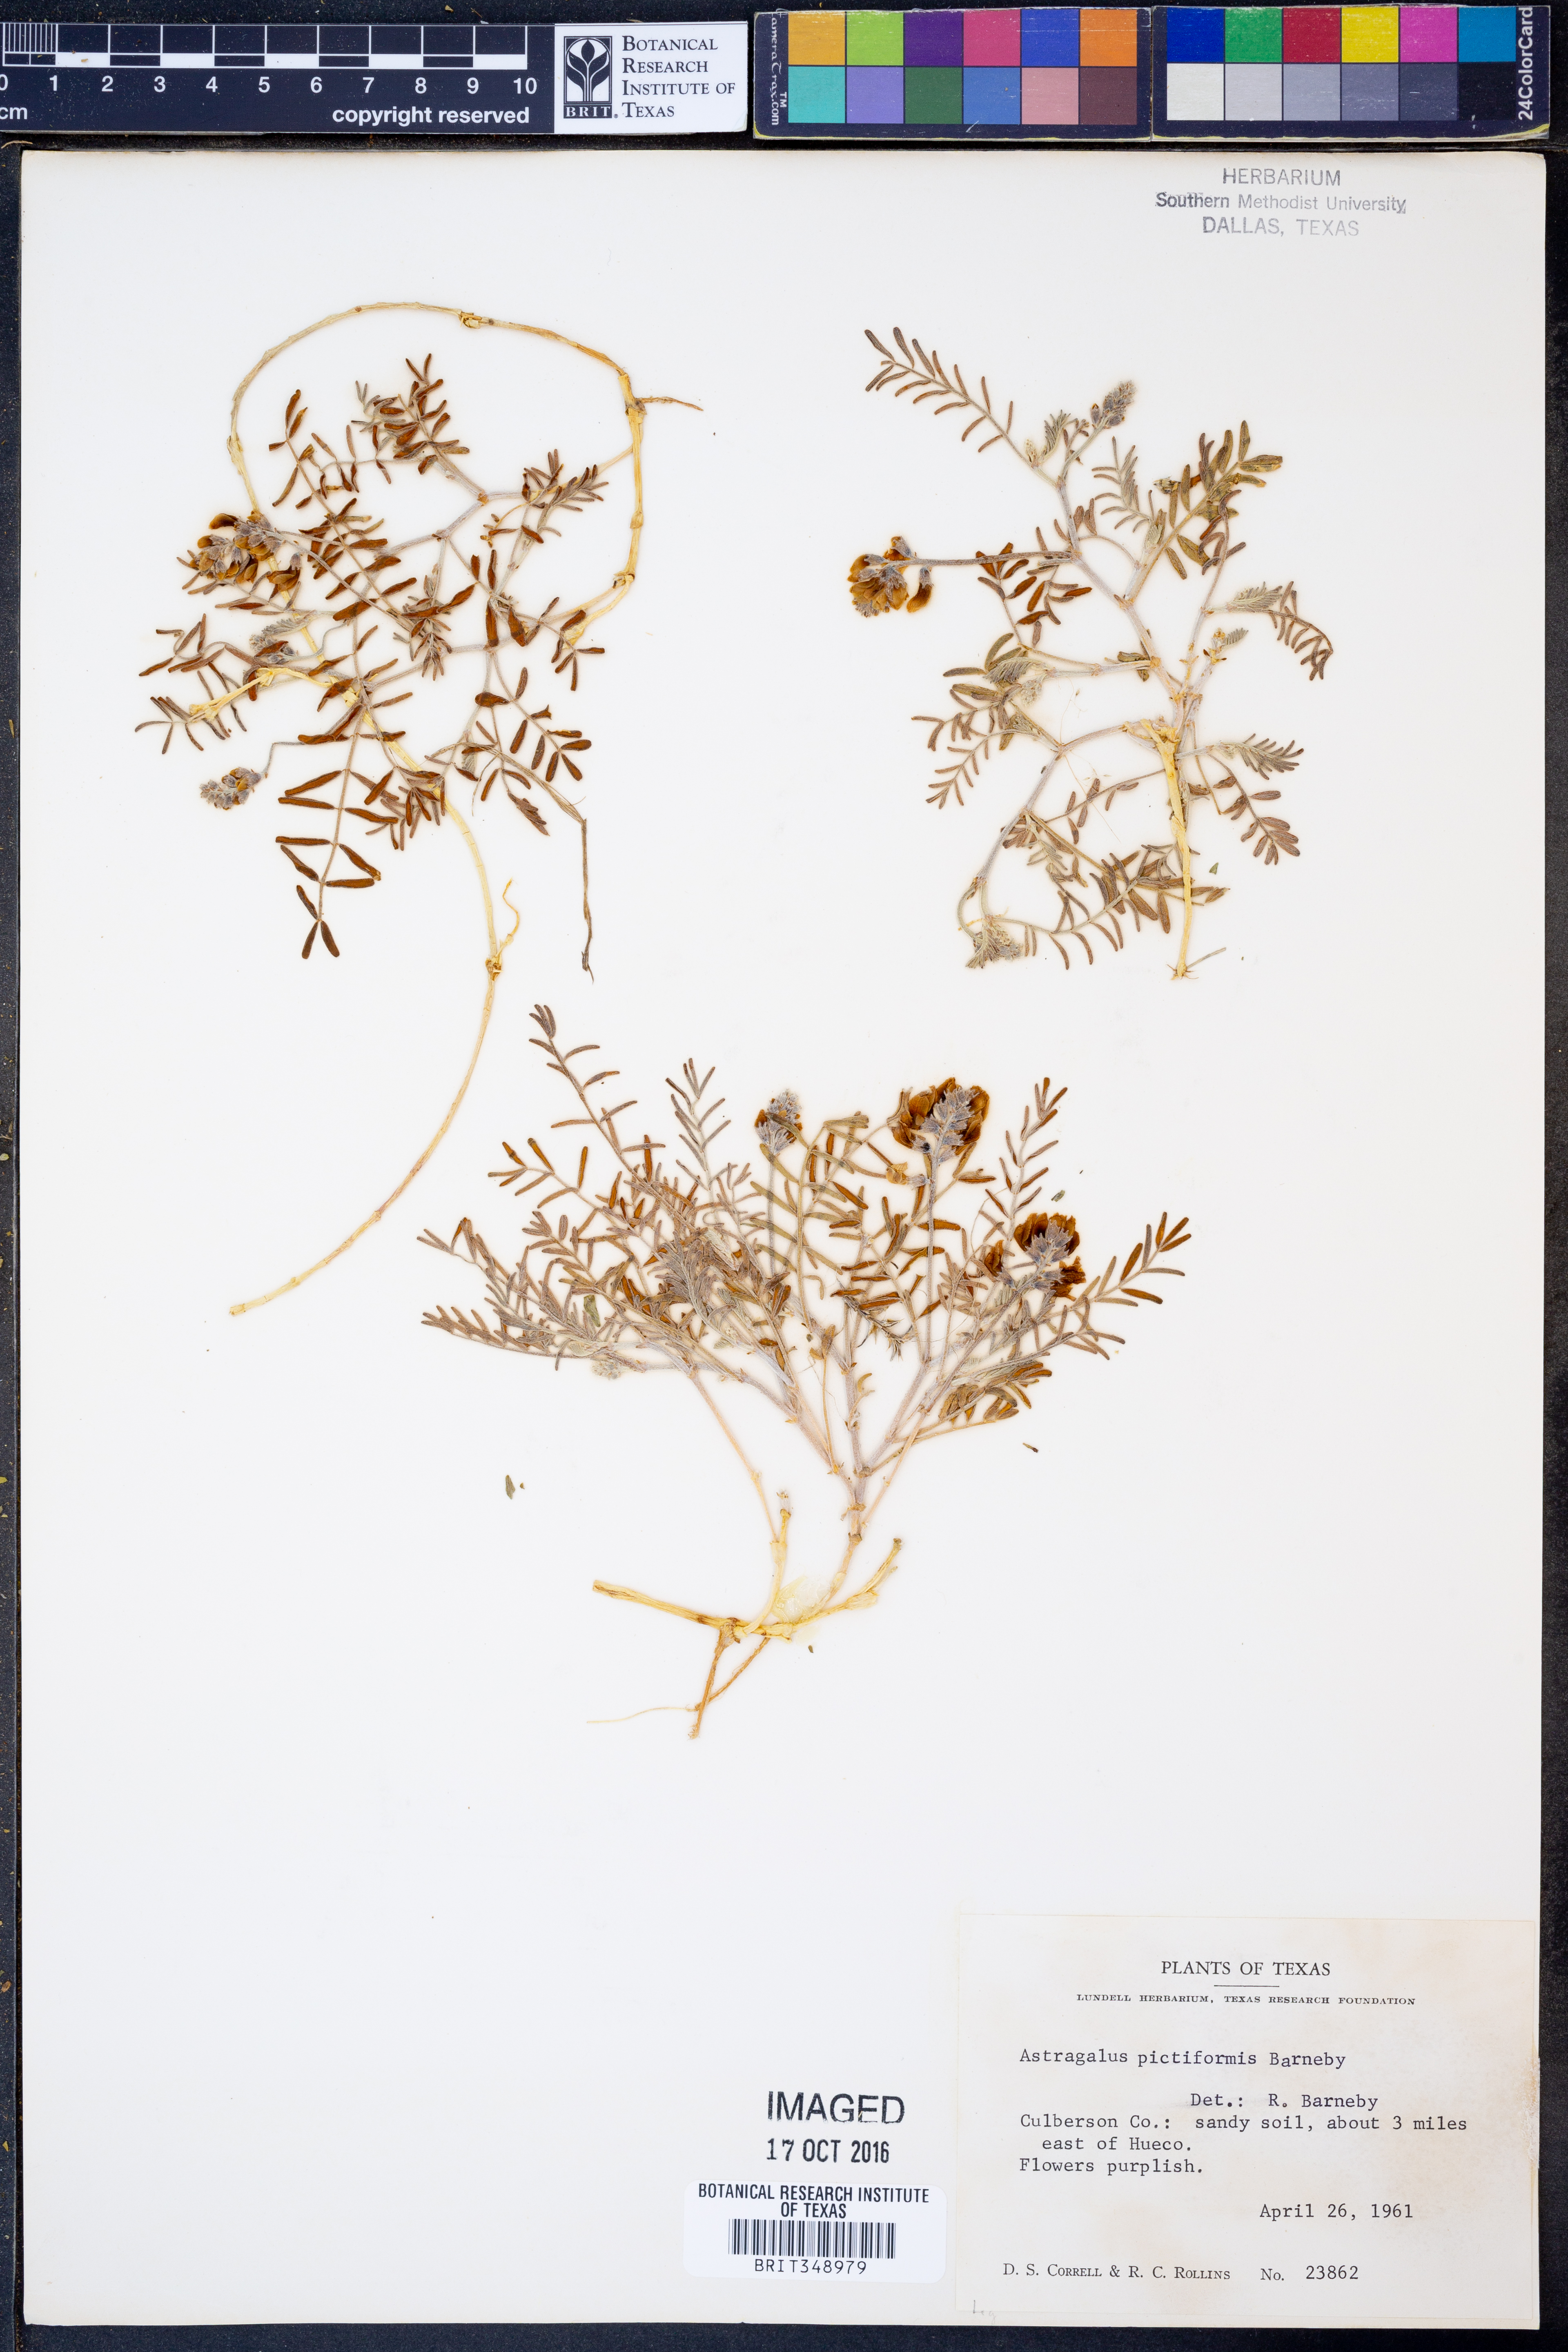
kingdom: Plantae
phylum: Tracheophyta
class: Magnoliopsida
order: Fabales
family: Fabaceae
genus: Astragalus
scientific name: Astragalus pictiformis
